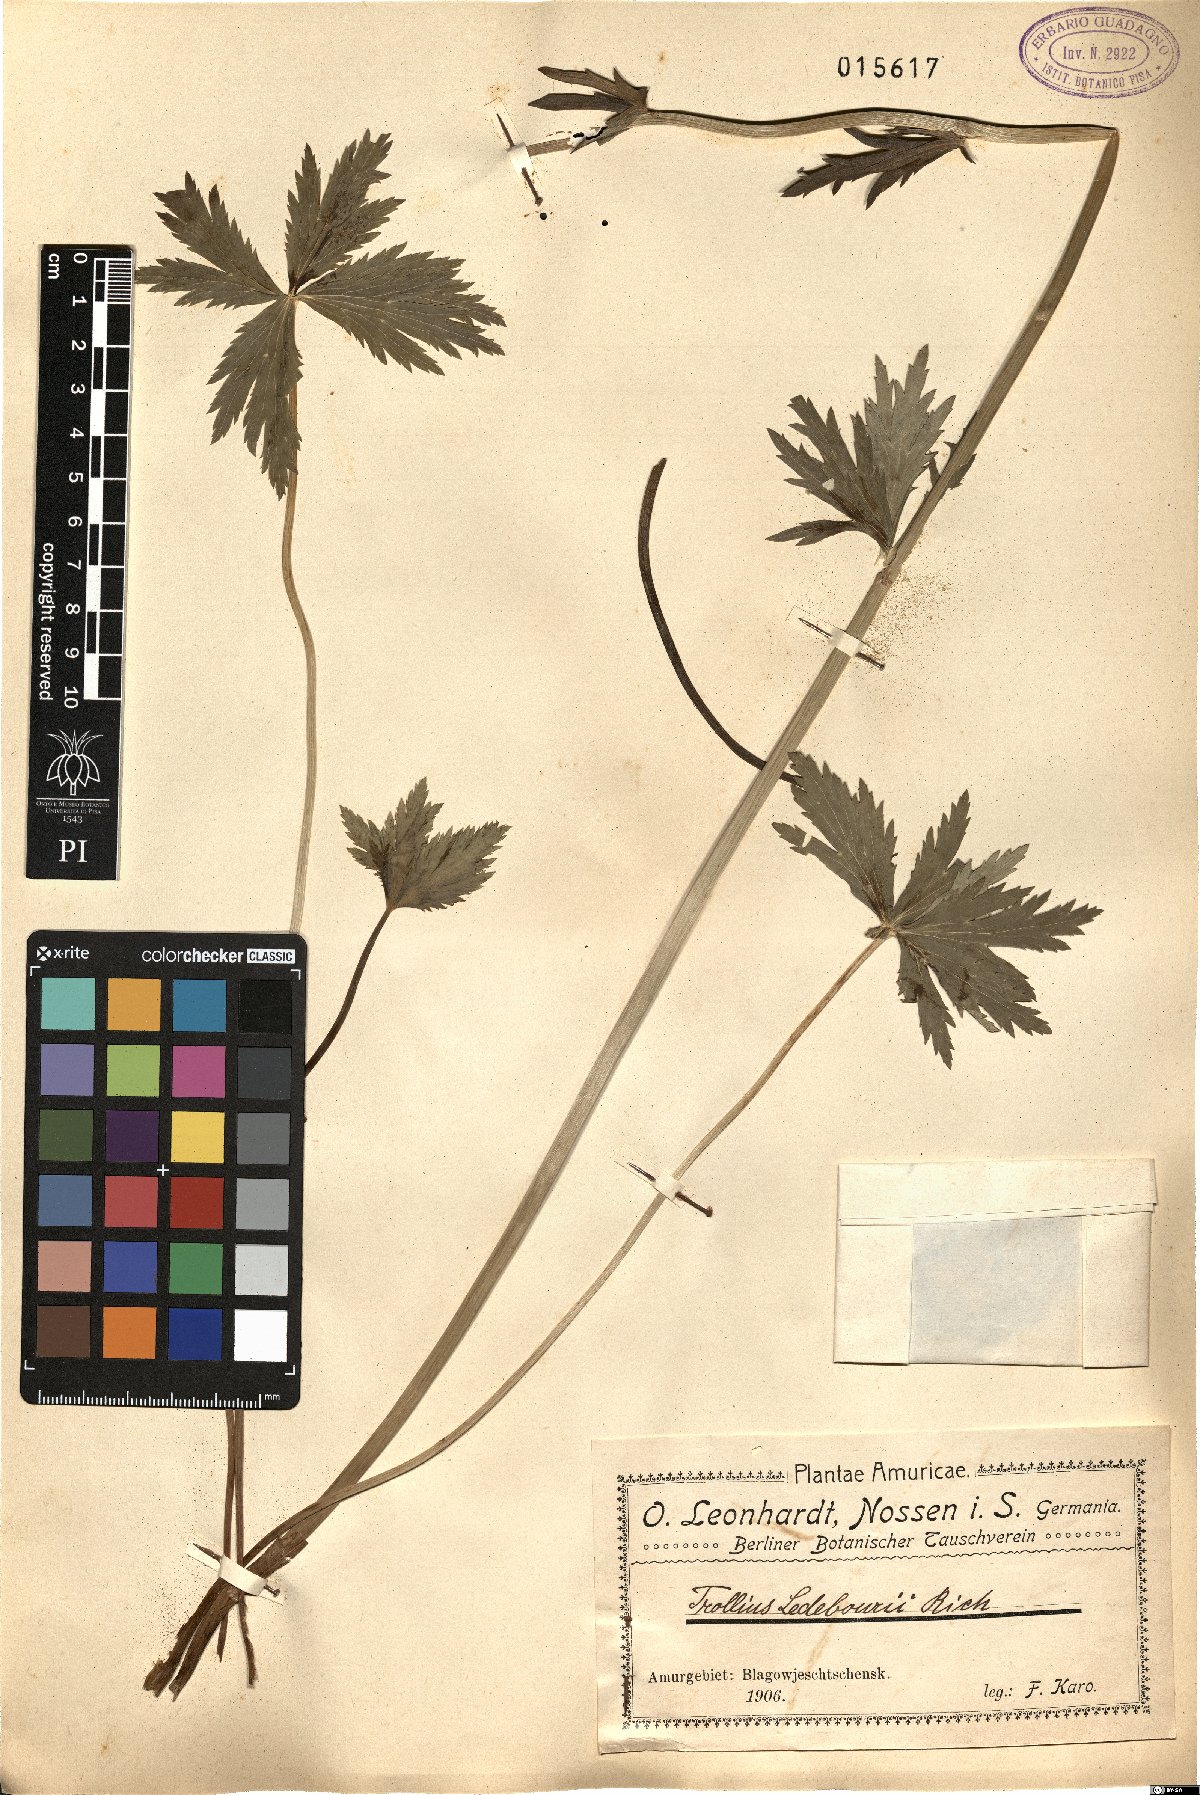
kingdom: Plantae
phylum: Tracheophyta
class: Magnoliopsida
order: Ranunculales
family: Ranunculaceae
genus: Trollius
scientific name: Trollius ledebourii
